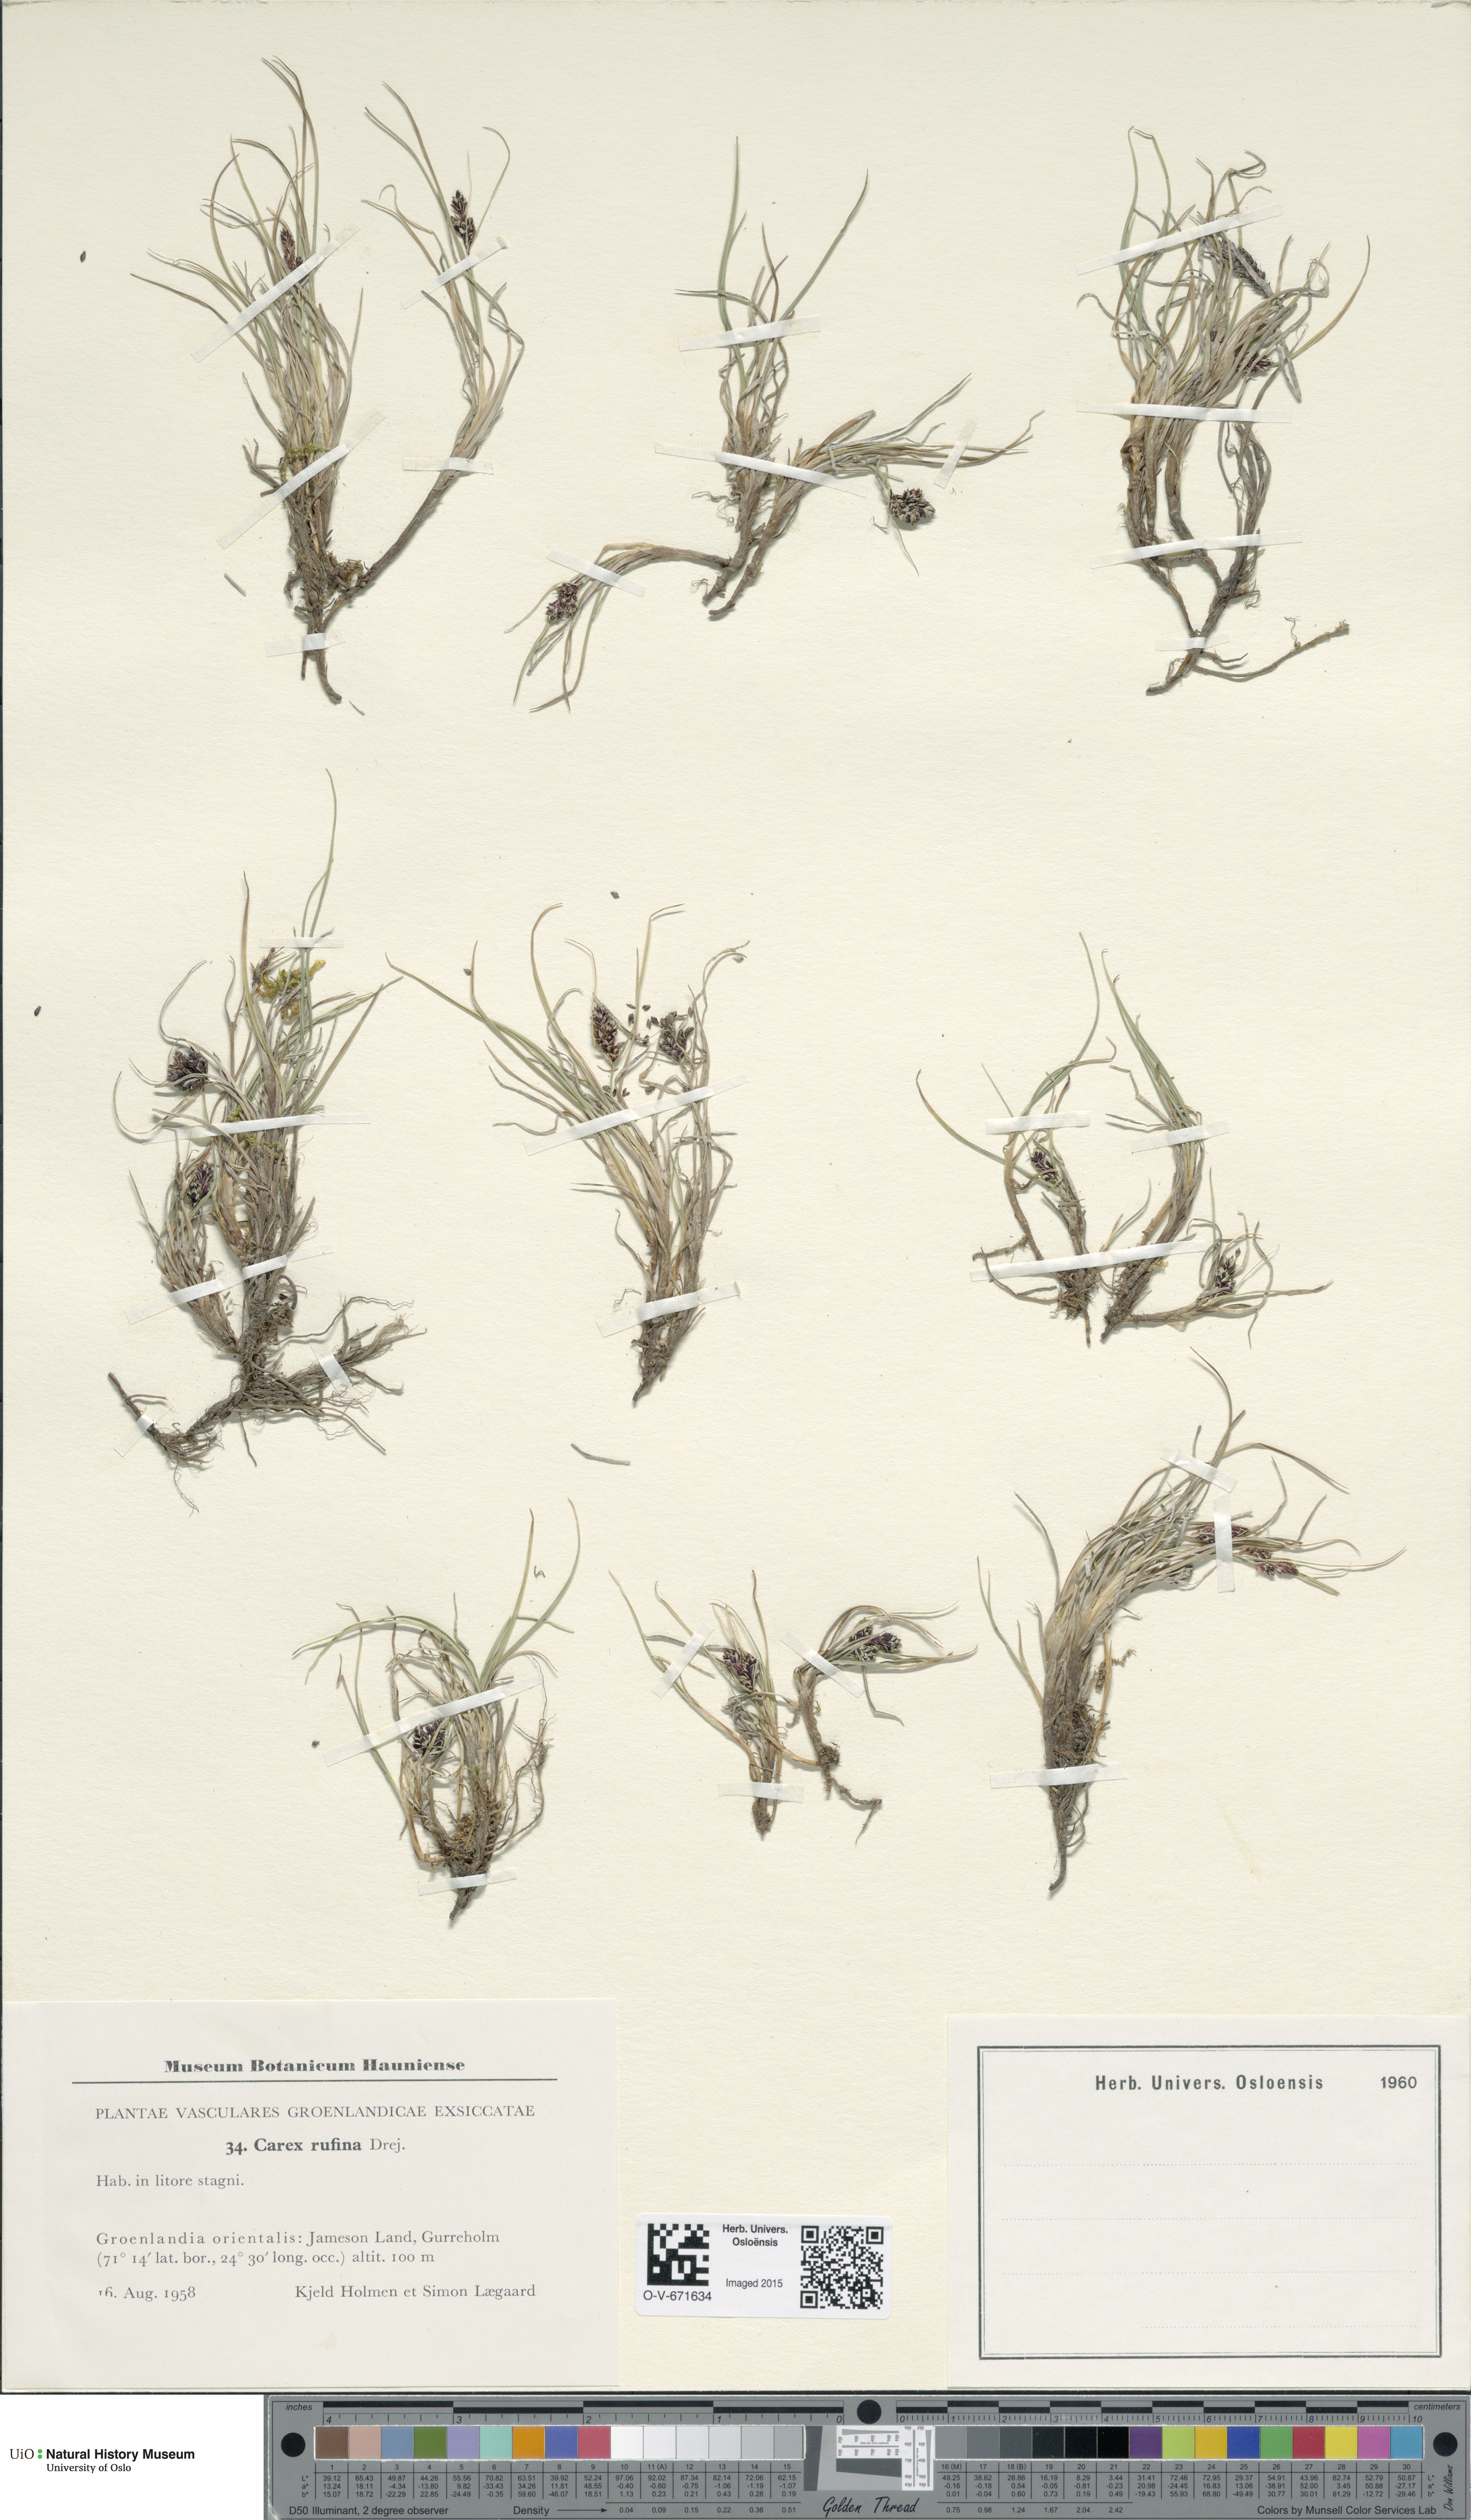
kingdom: Plantae
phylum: Tracheophyta
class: Liliopsida
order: Poales
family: Cyperaceae
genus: Carex
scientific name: Carex rufina
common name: Reddish sedge
